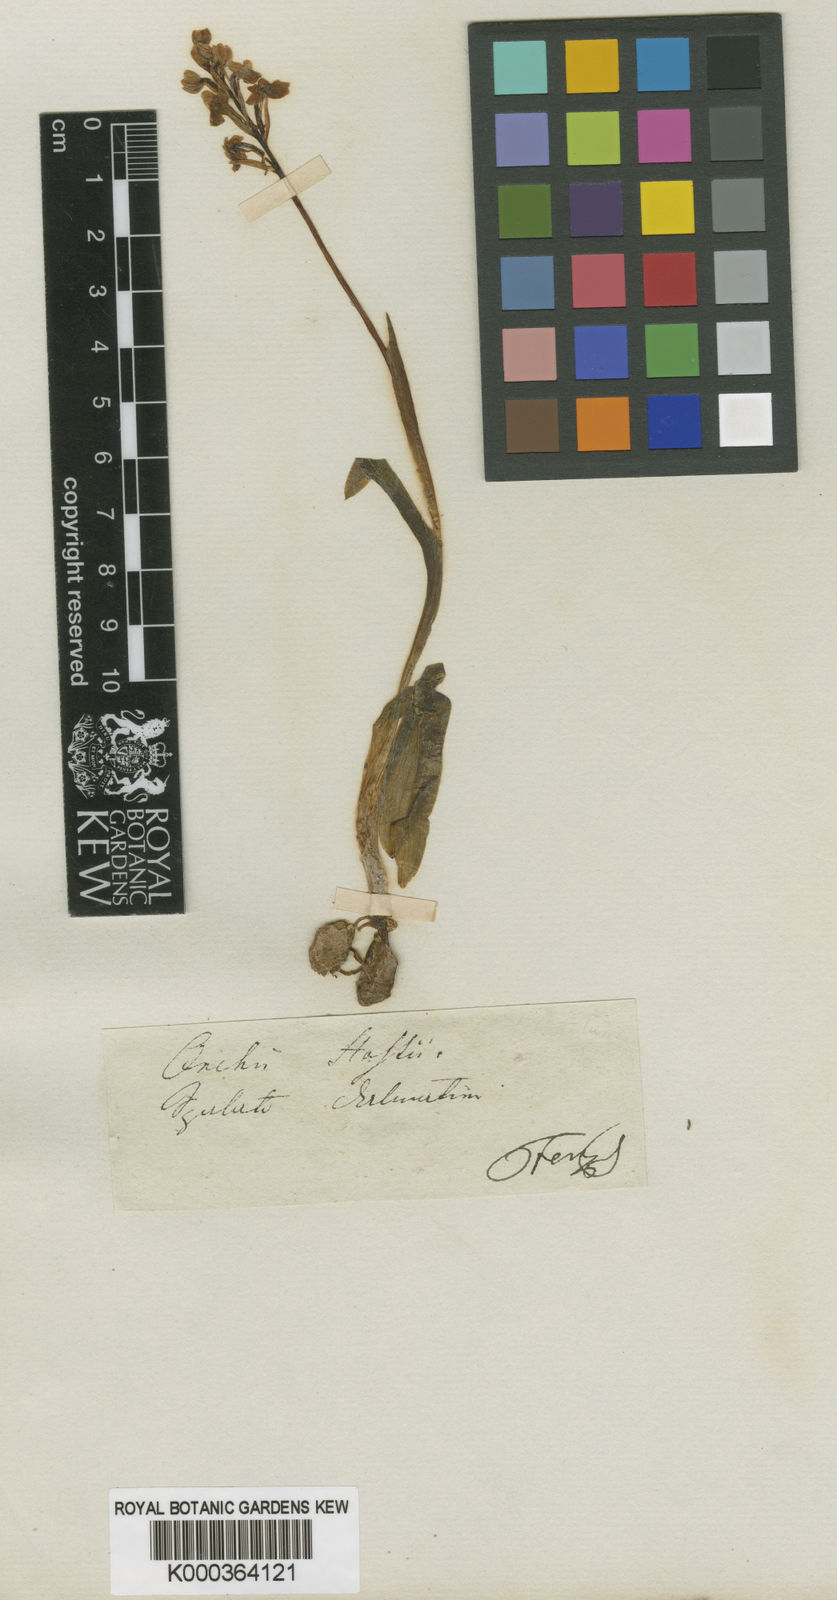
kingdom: Plantae
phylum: Tracheophyta
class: Liliopsida
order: Asparagales
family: Orchidaceae
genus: Orchis
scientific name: Orchis quadripunctata
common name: Four-spotted orchid
